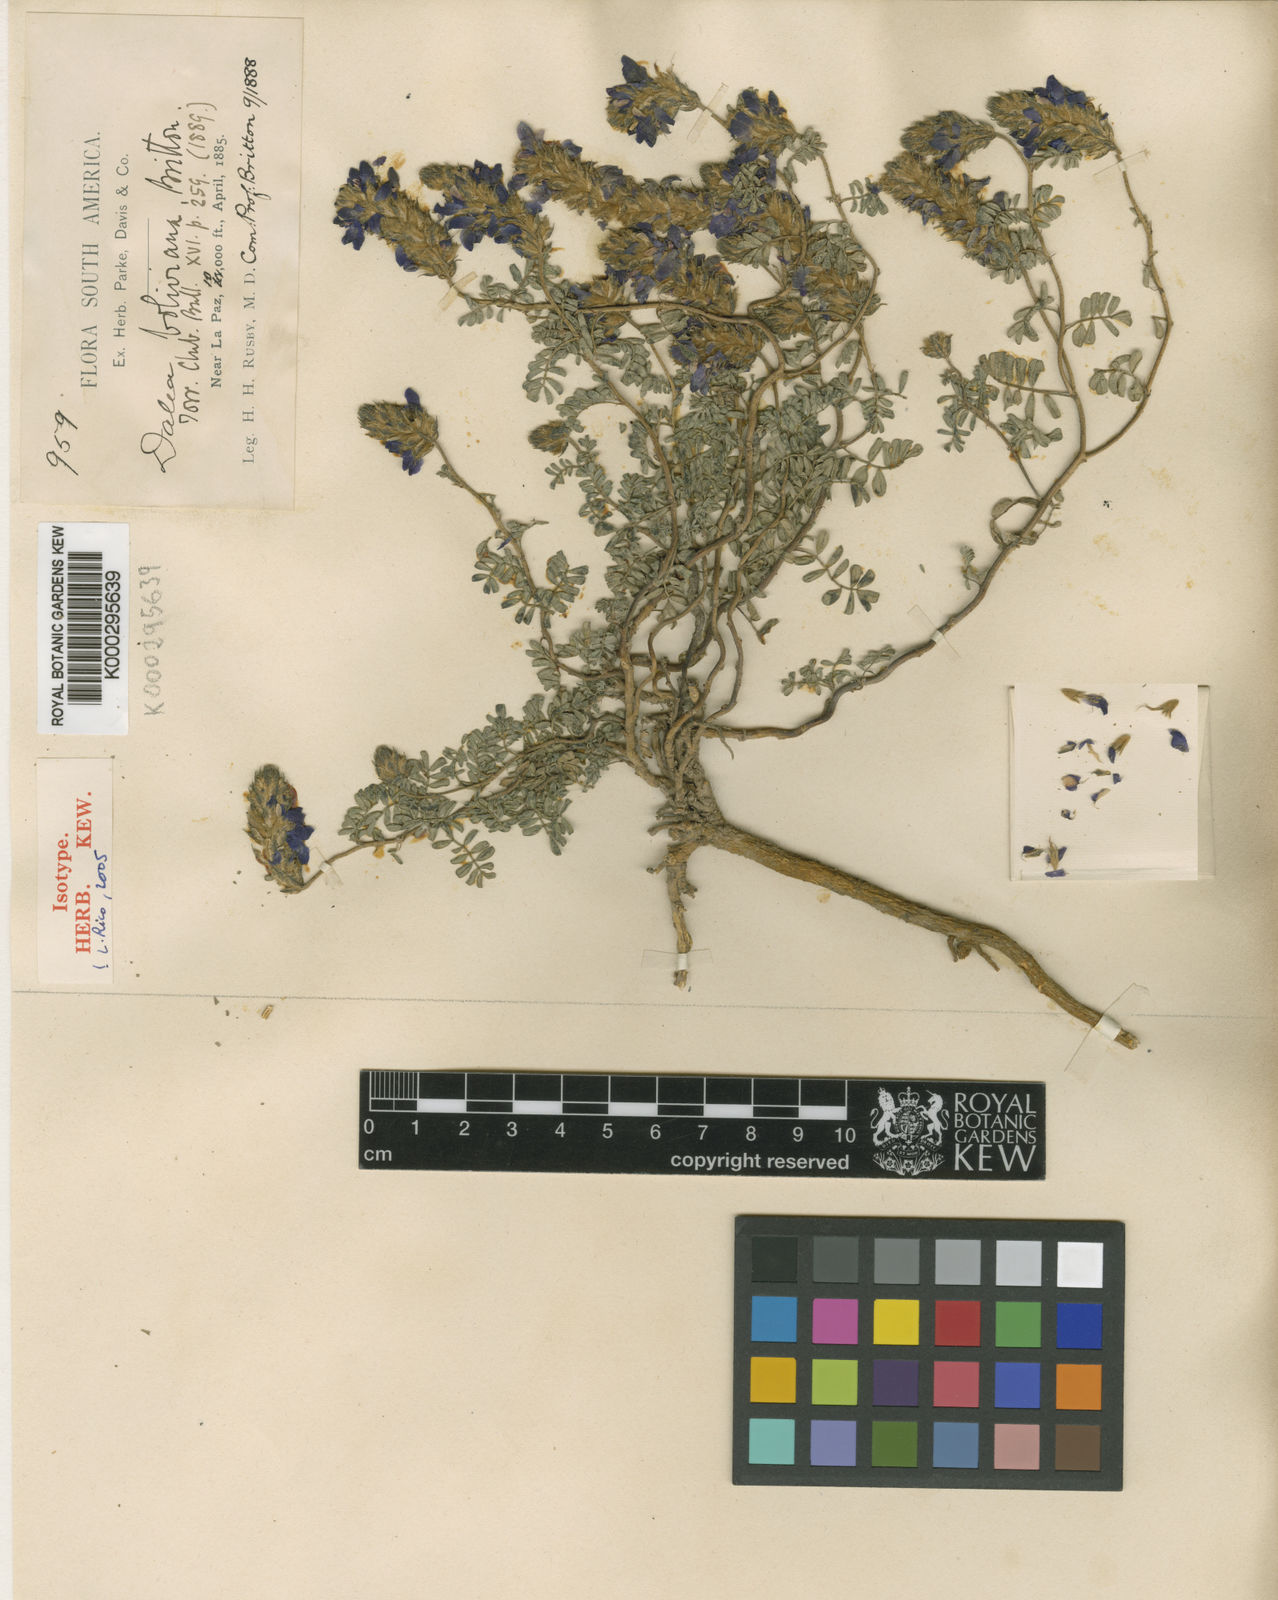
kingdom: Plantae
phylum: Tracheophyta
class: Magnoliopsida
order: Fabales
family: Fabaceae
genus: Dalea
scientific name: Dalea boliviana
